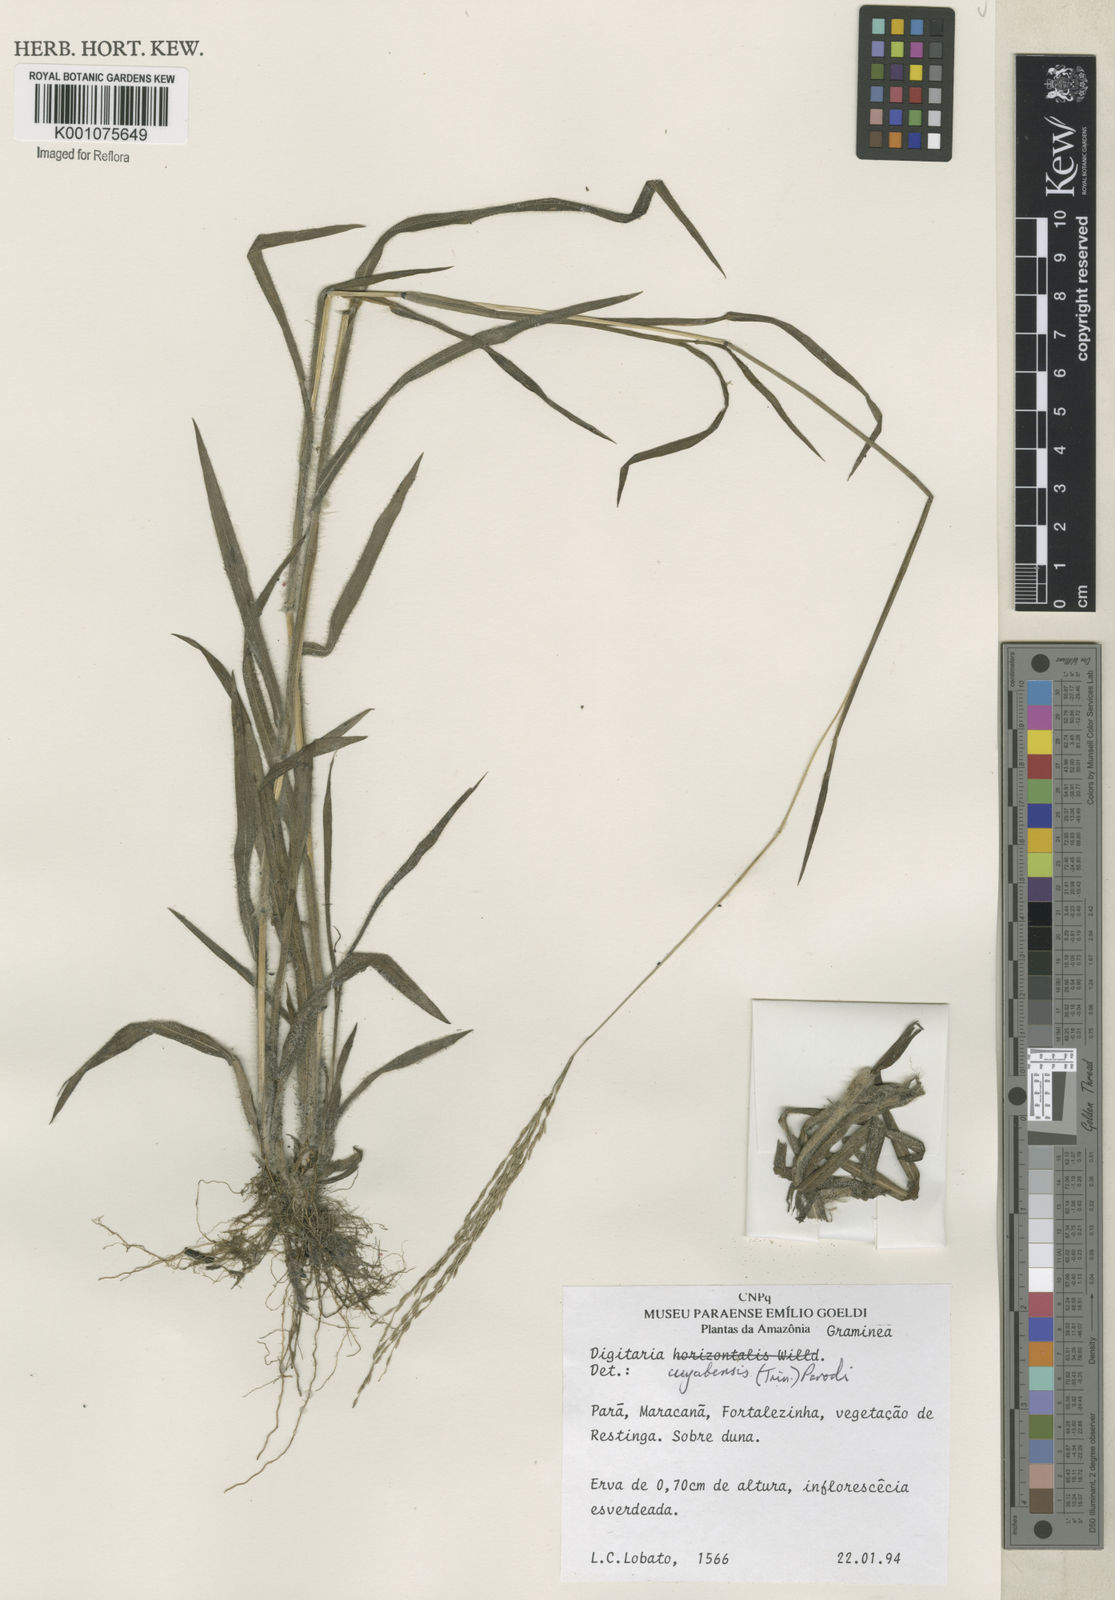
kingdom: Plantae
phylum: Tracheophyta
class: Liliopsida
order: Poales
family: Poaceae
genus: Digitaria
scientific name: Digitaria cuyabensis
